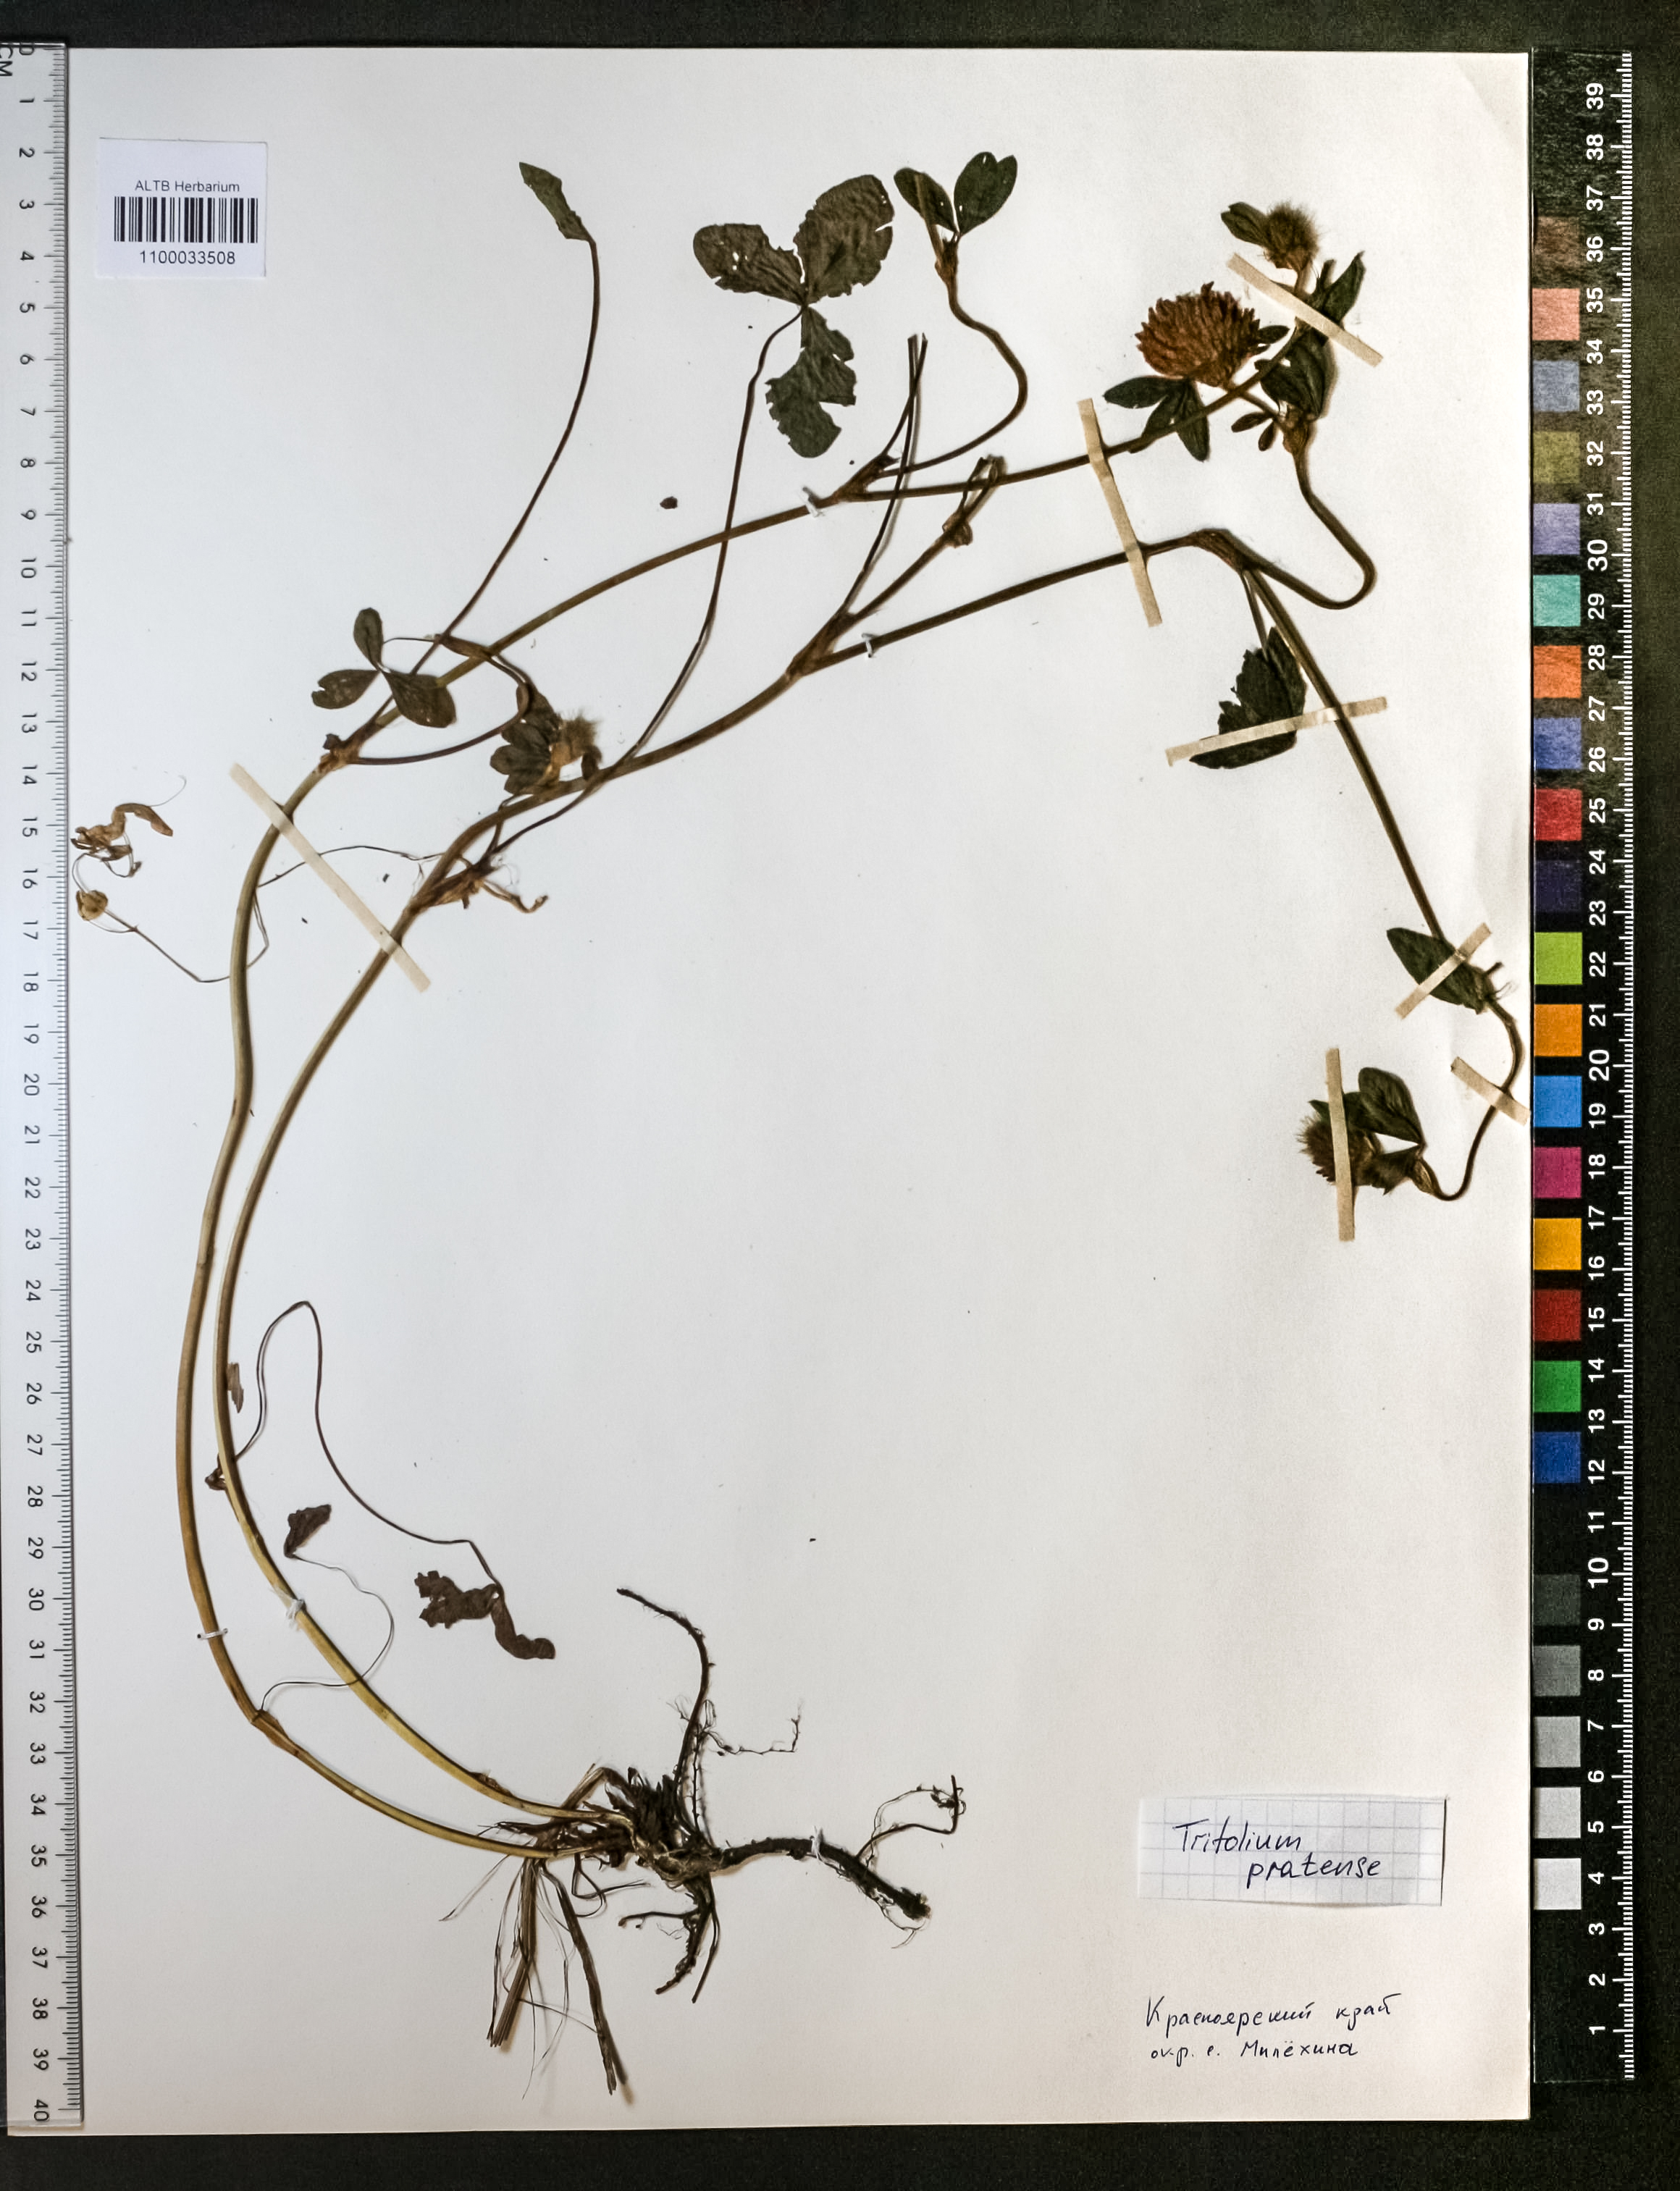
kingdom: Plantae
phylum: Tracheophyta
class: Magnoliopsida
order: Fabales
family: Fabaceae
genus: Trifolium
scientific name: Trifolium pratense
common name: Red clover
